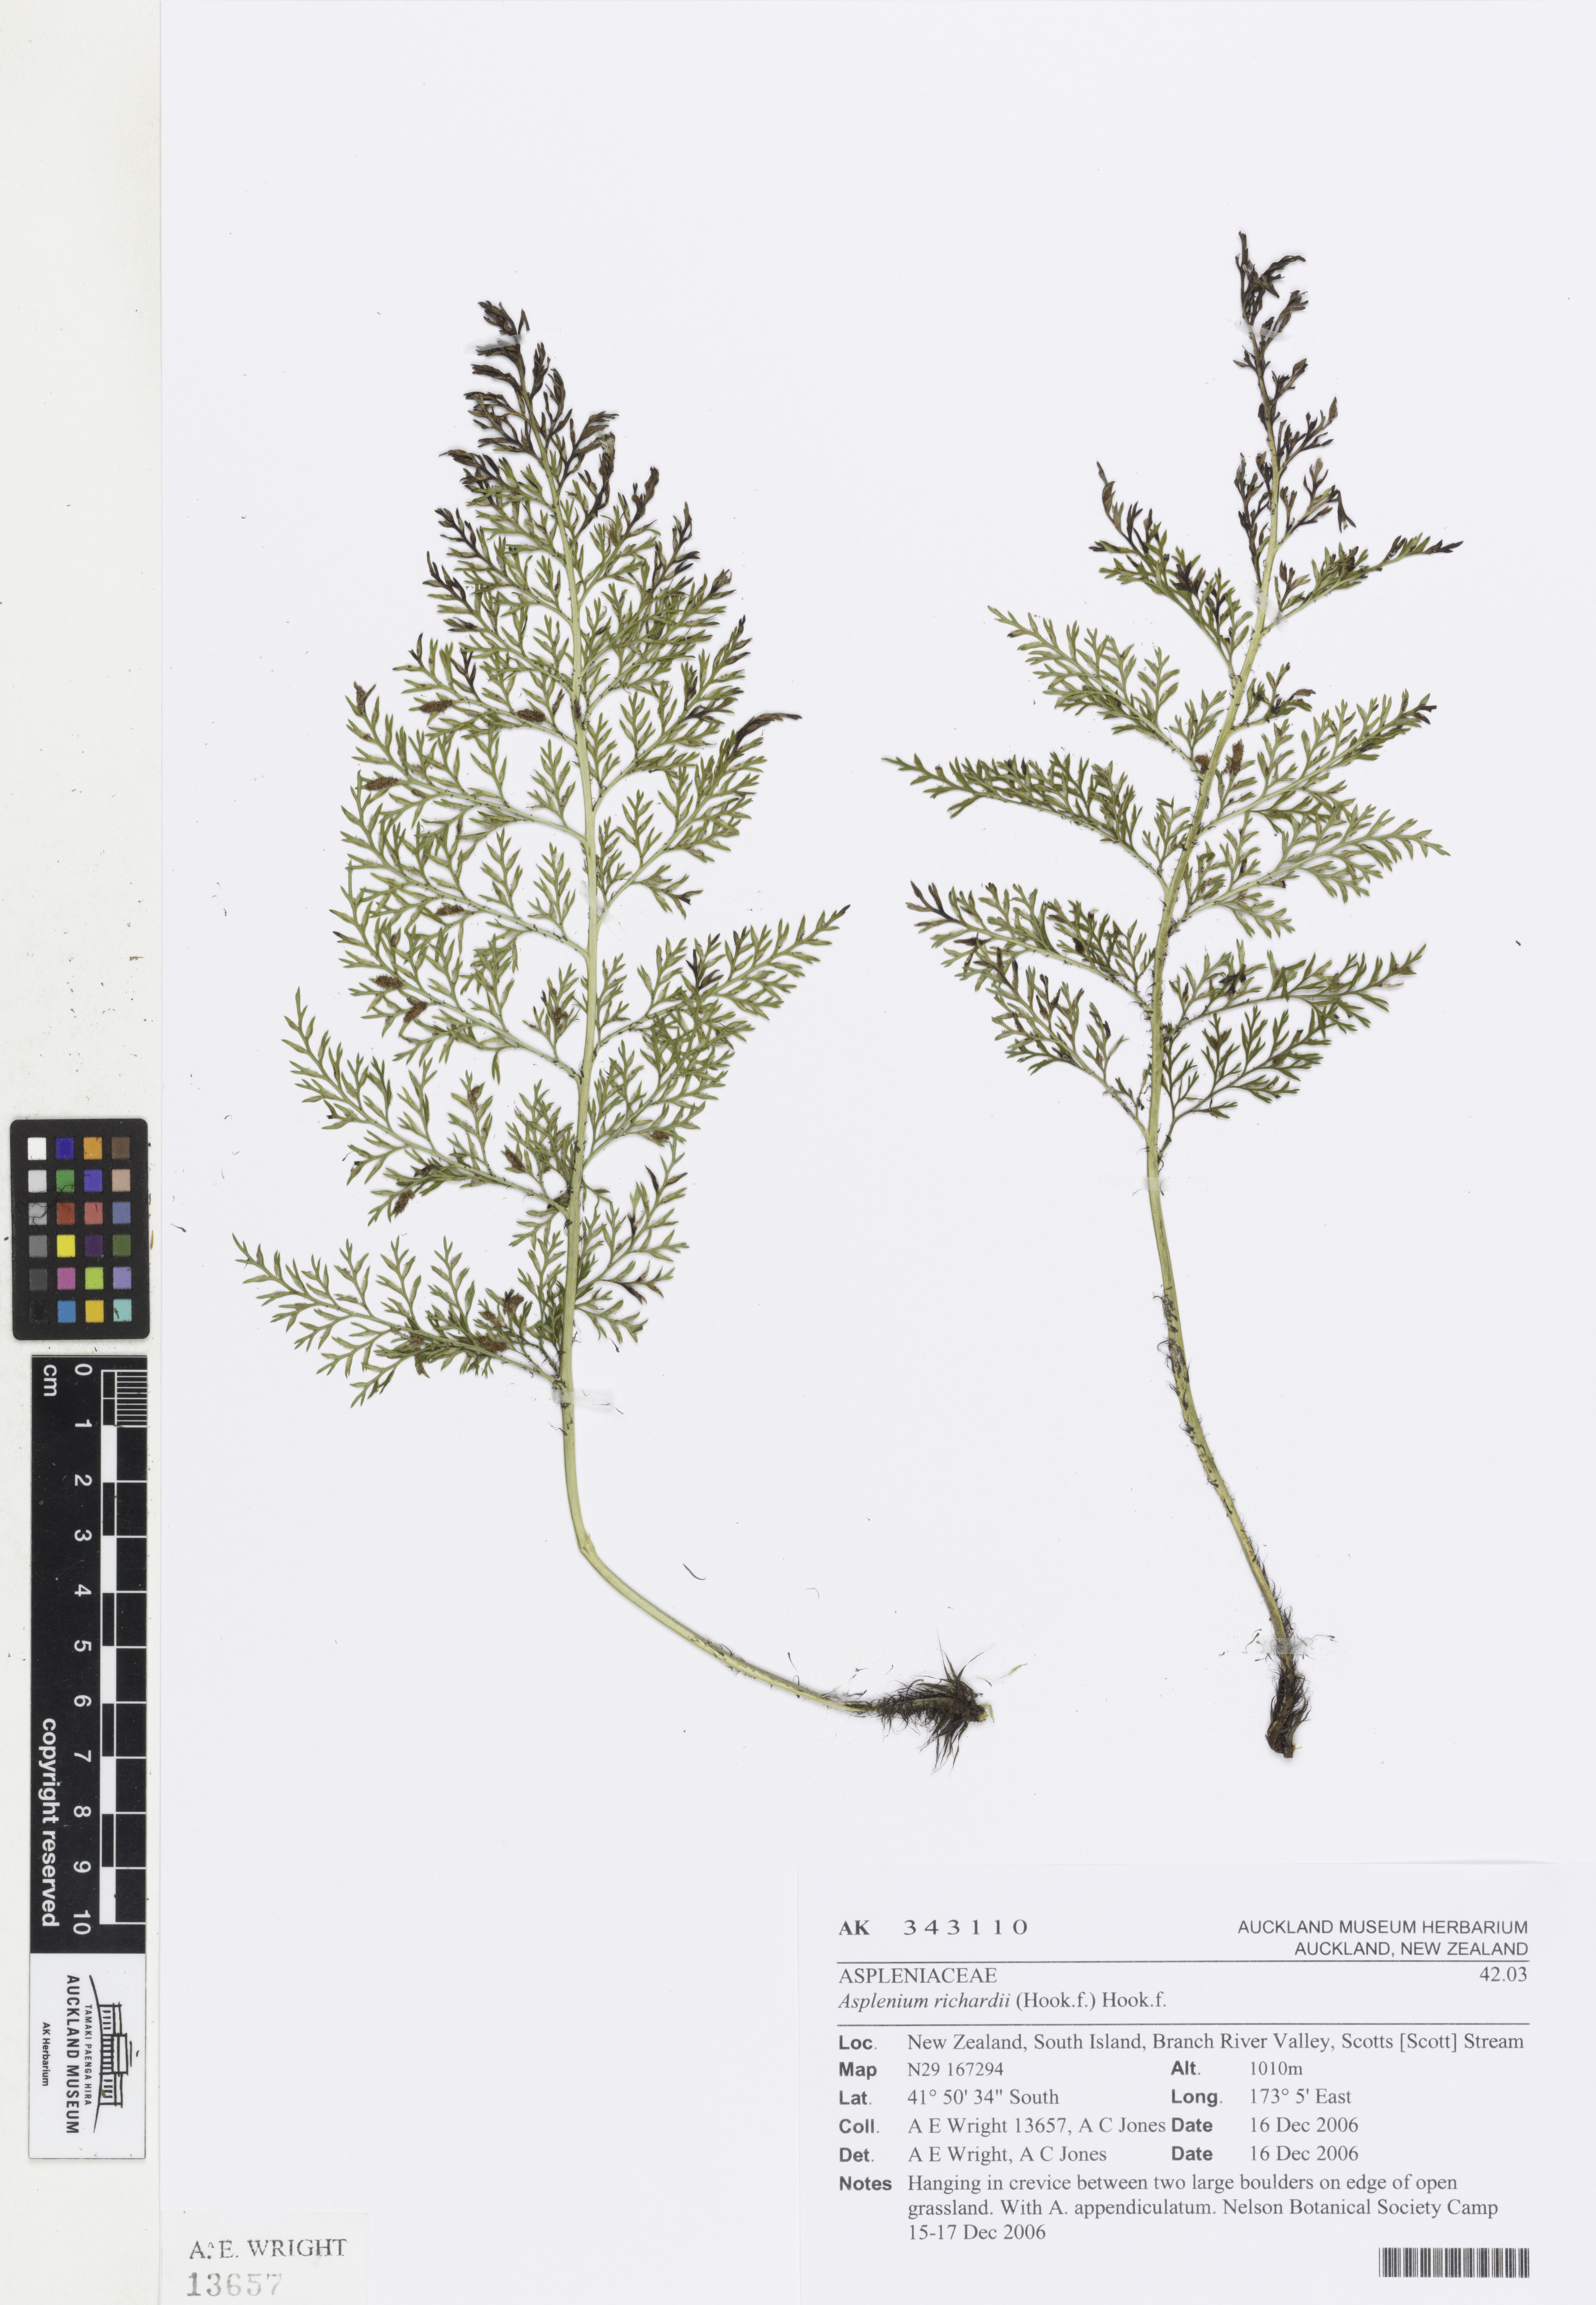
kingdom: Plantae
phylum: Tracheophyta
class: Polypodiopsida
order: Polypodiales
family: Aspleniaceae
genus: Asplenium
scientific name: Asplenium richardii
